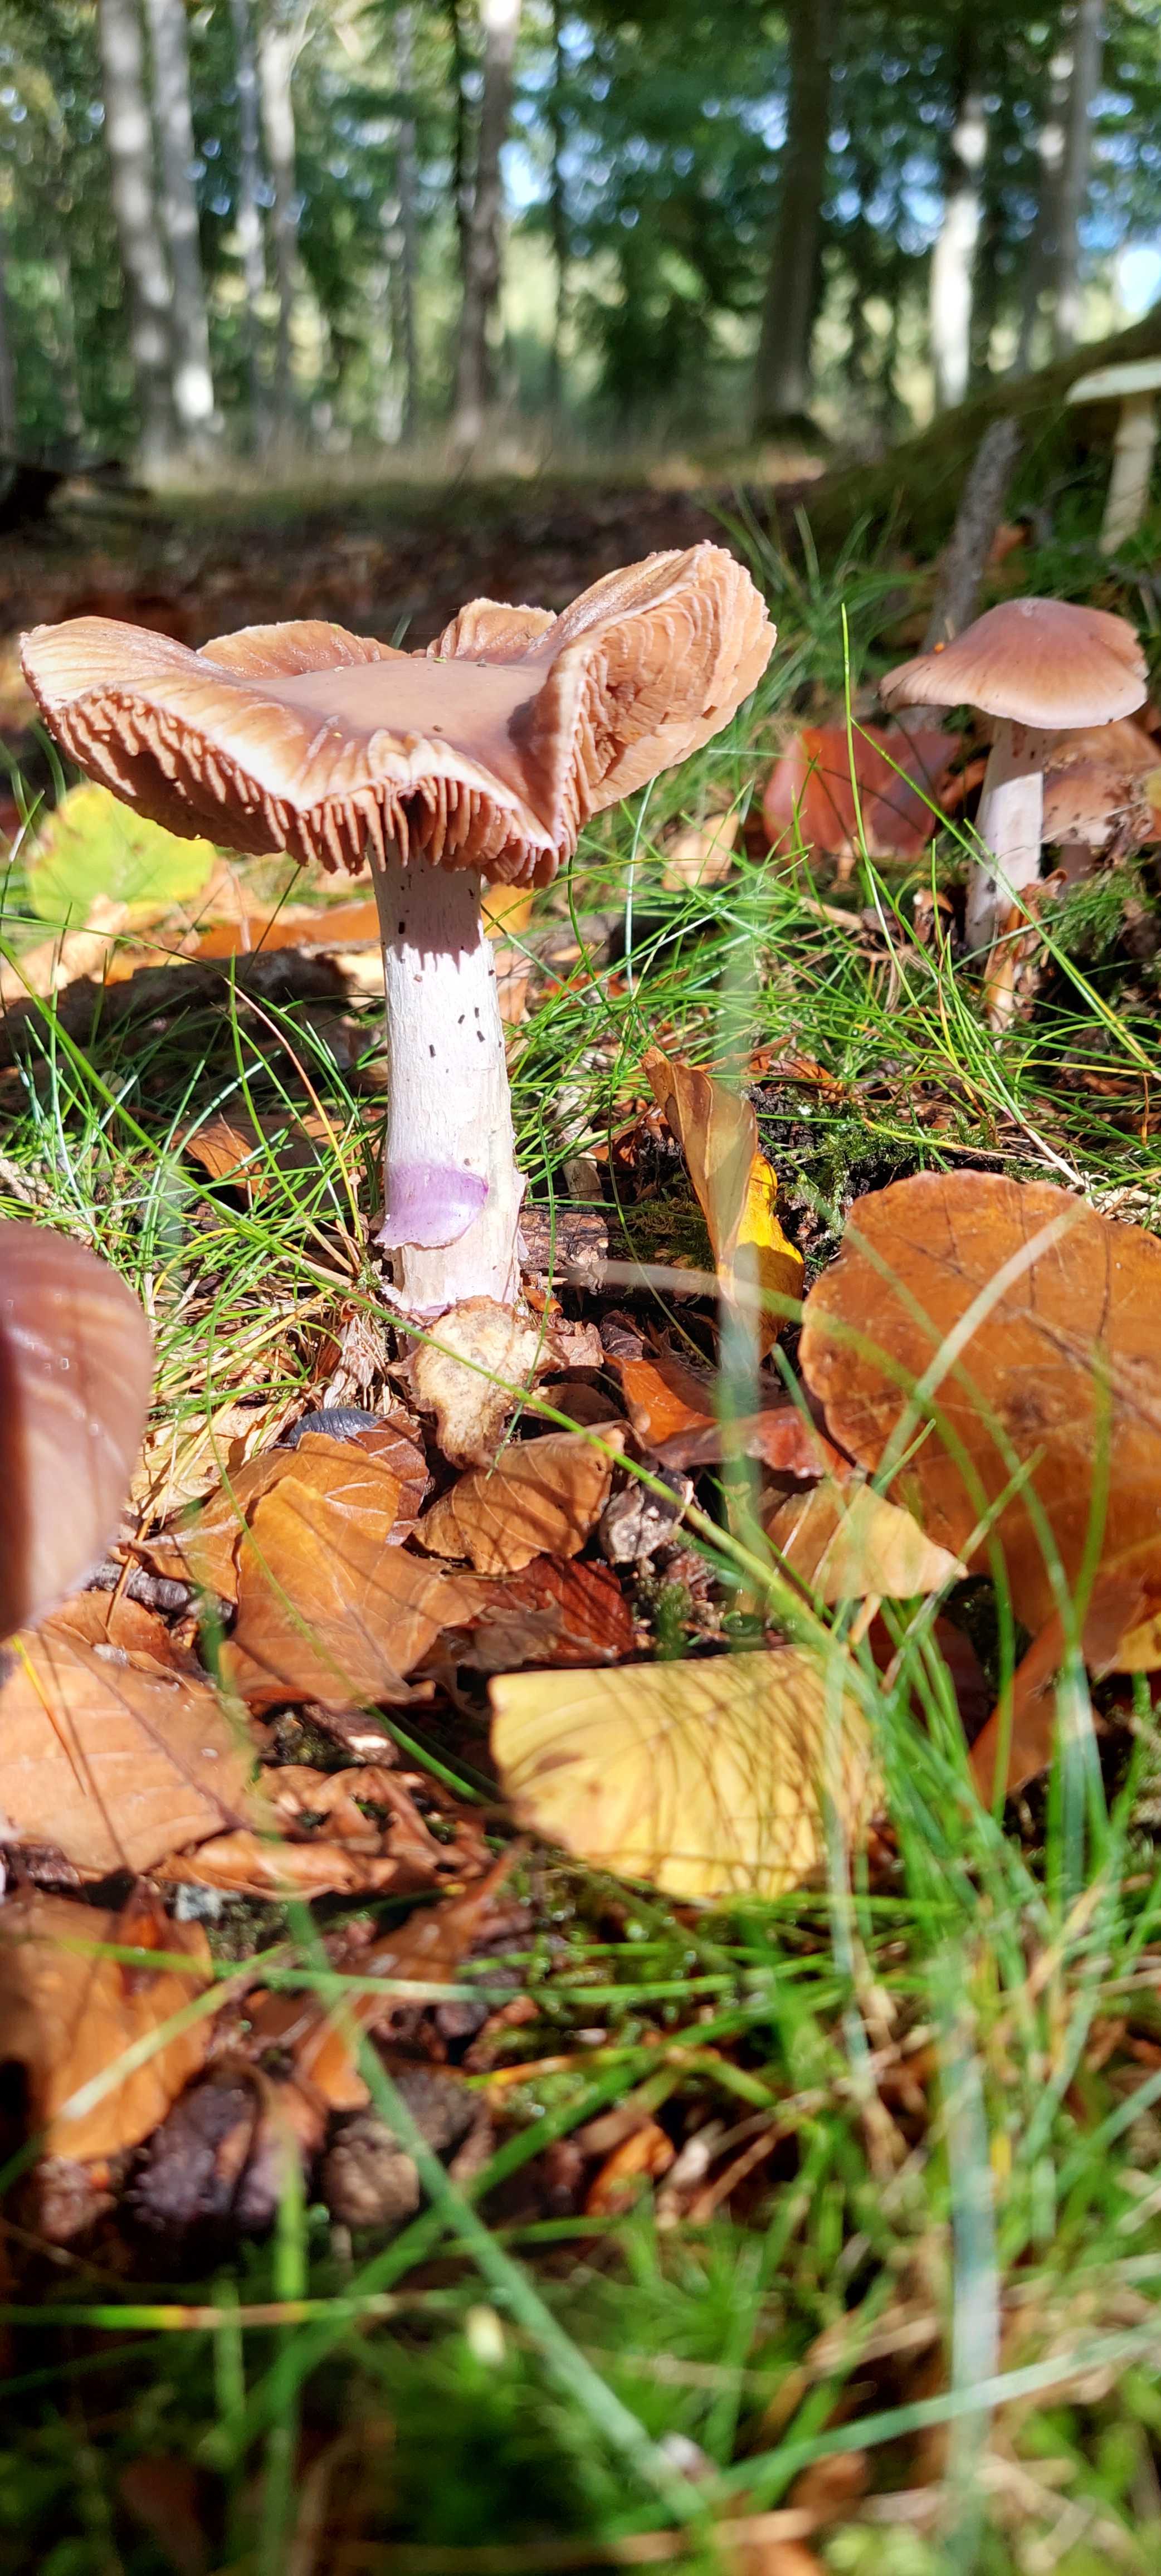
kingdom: Fungi
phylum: Basidiomycota
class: Agaricomycetes
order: Agaricales
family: Cortinariaceae
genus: Cortinarius
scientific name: Cortinarius elatior
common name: høj slørhat
